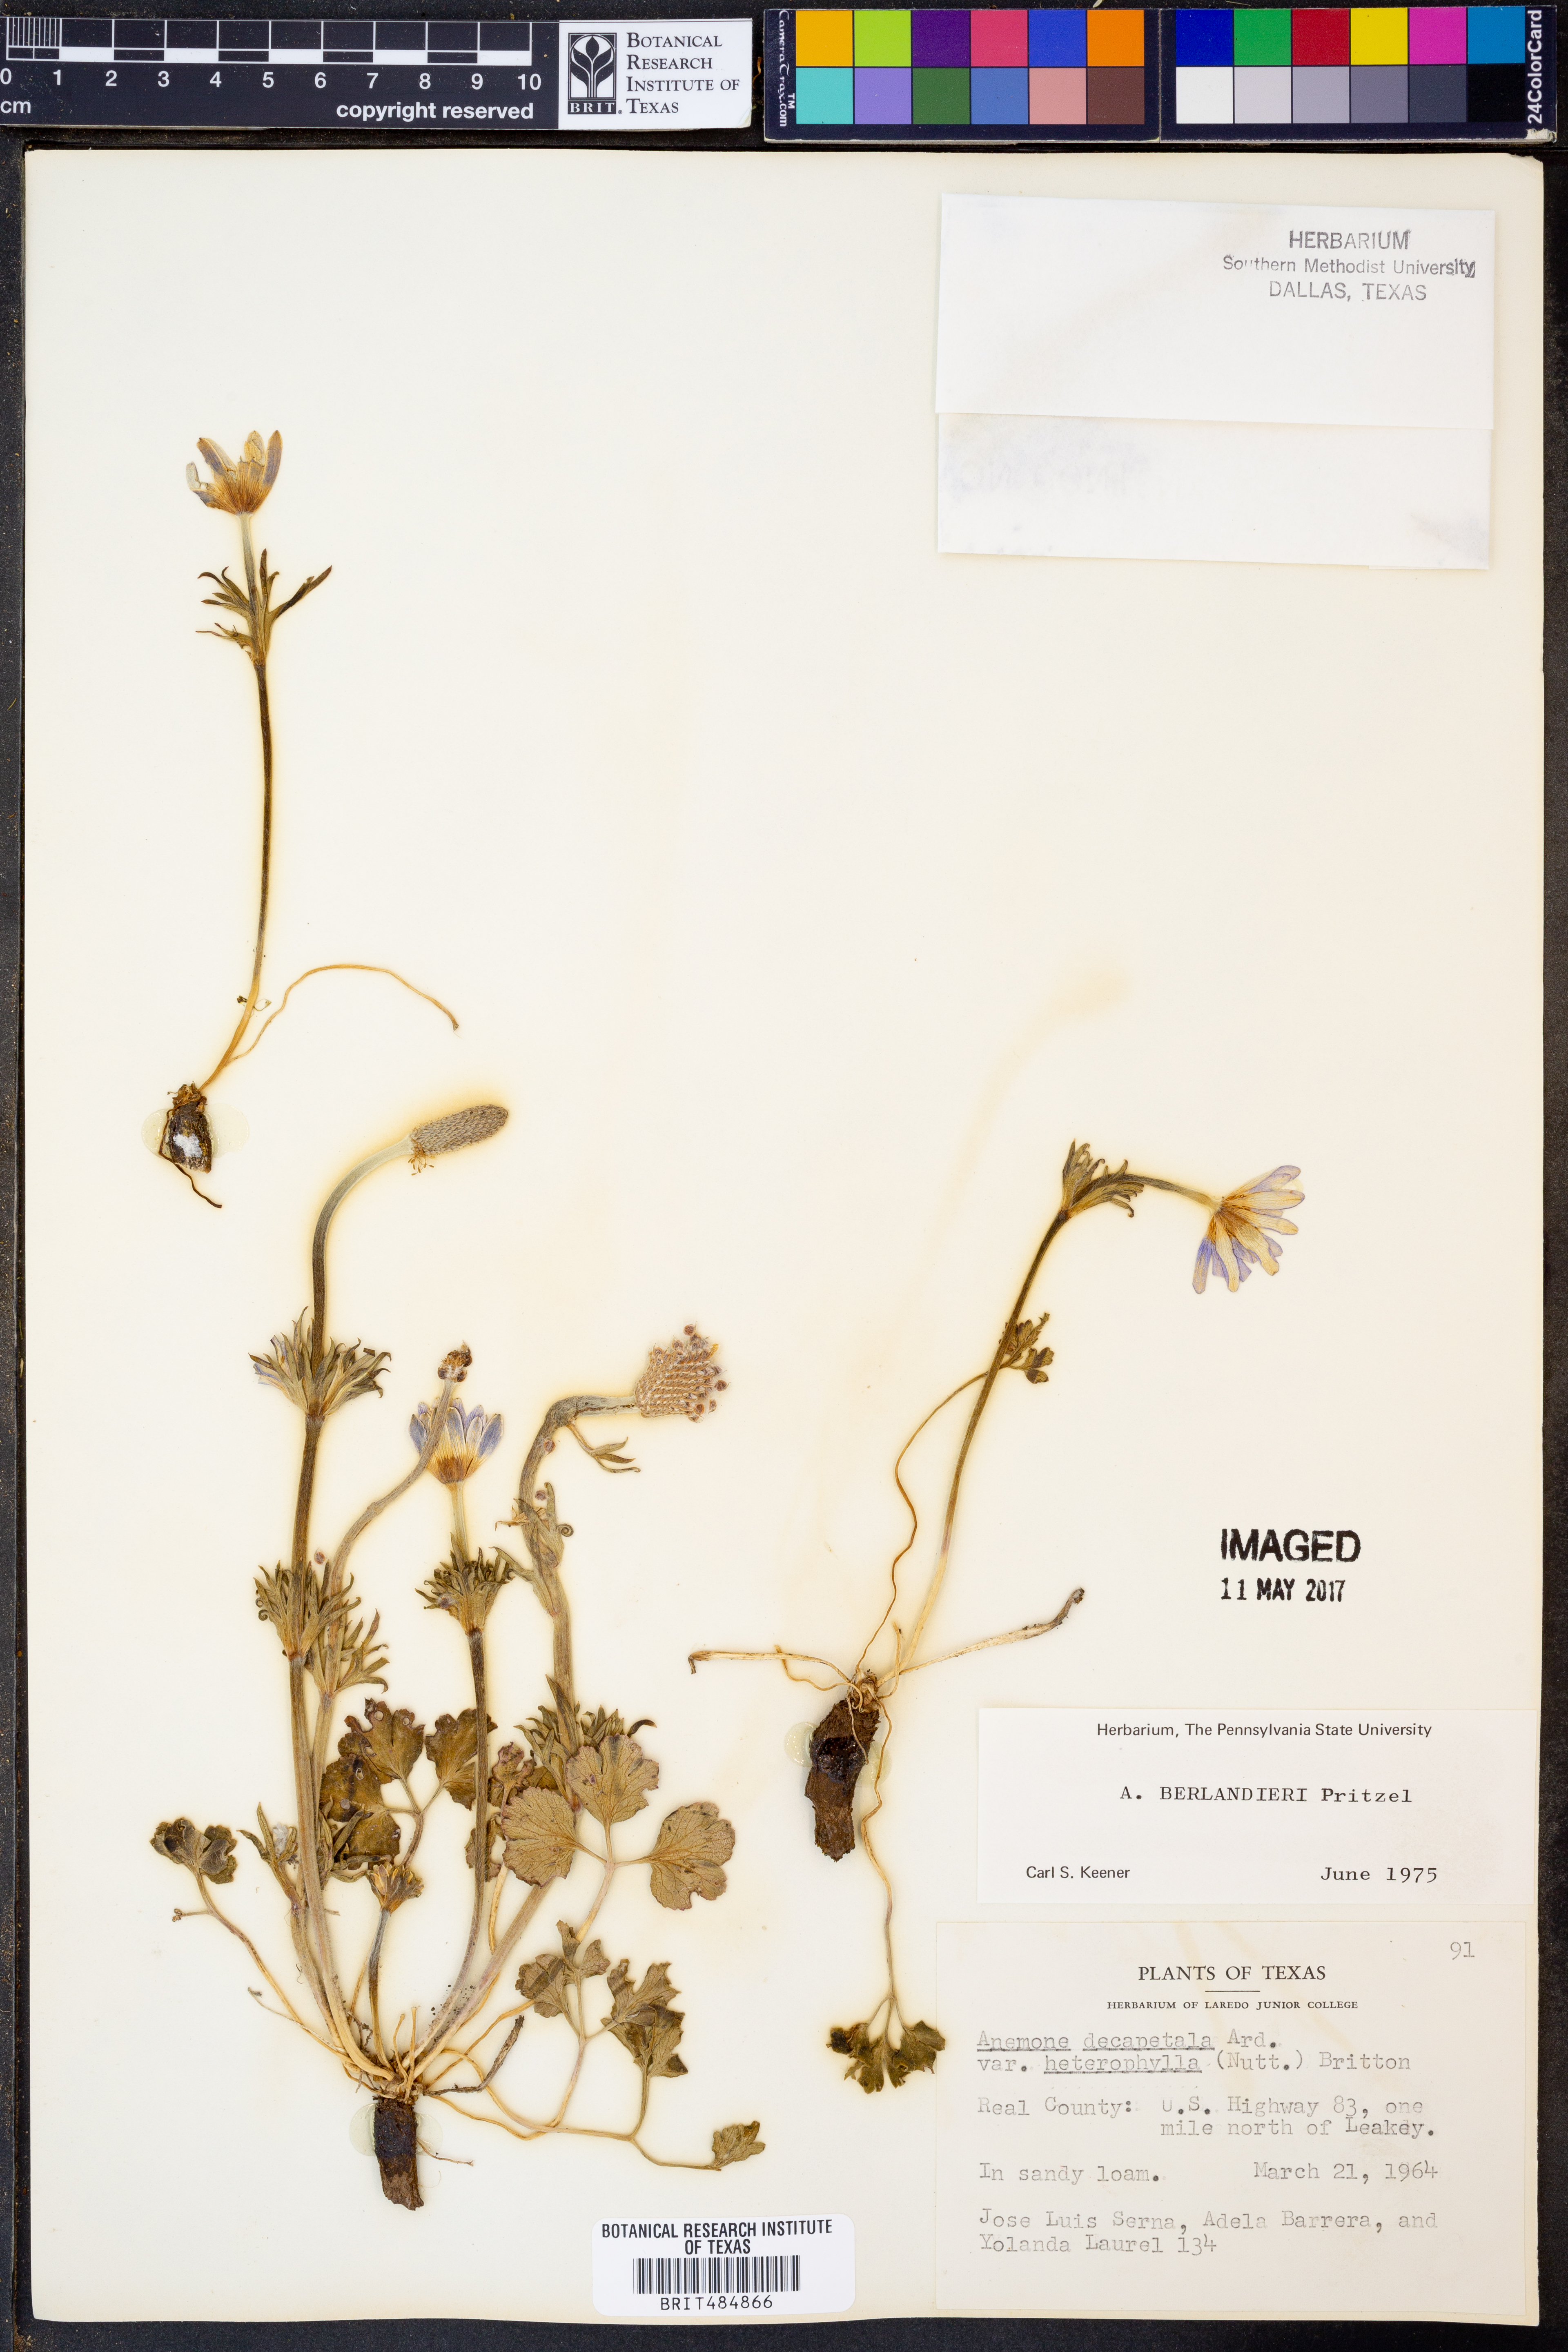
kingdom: Plantae
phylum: Tracheophyta
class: Magnoliopsida
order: Ranunculales
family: Ranunculaceae
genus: Anemone
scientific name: Anemone berlandieri
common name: Ten-petal anemone
